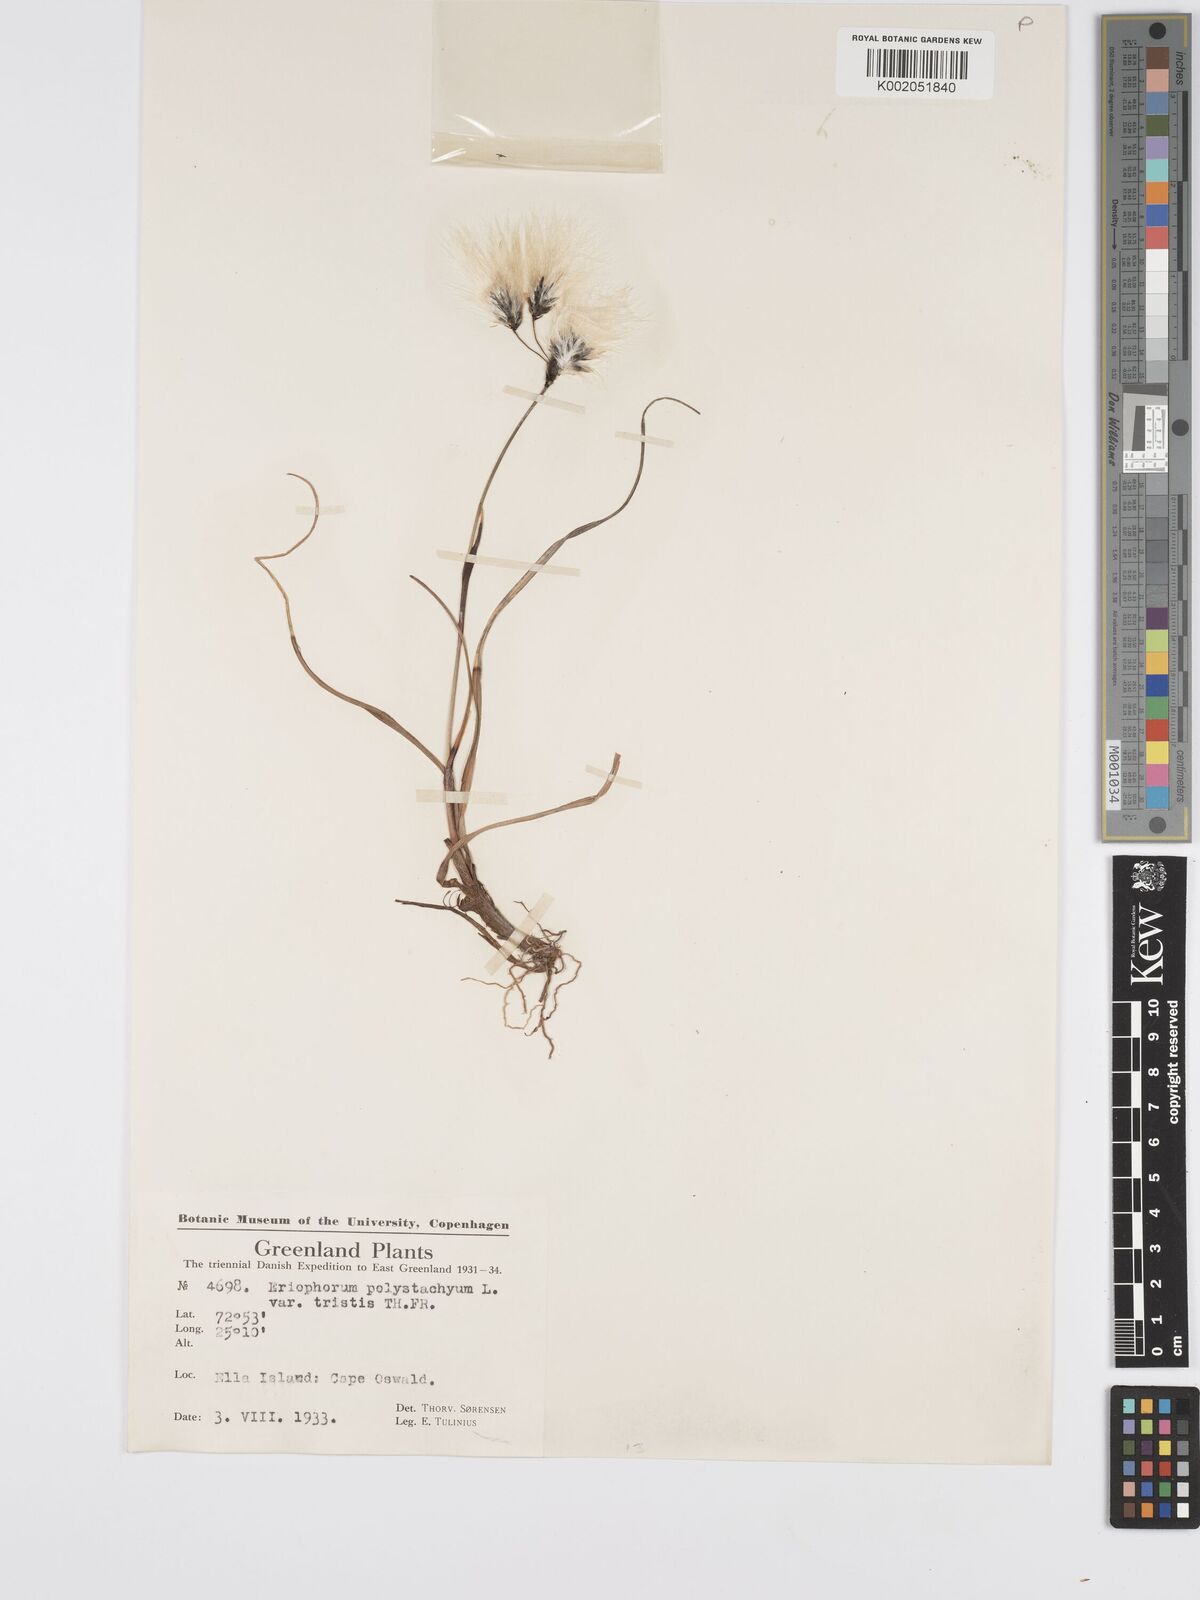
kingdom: Plantae
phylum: Tracheophyta
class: Liliopsida
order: Poales
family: Cyperaceae
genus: Eriophorum
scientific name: Eriophorum
